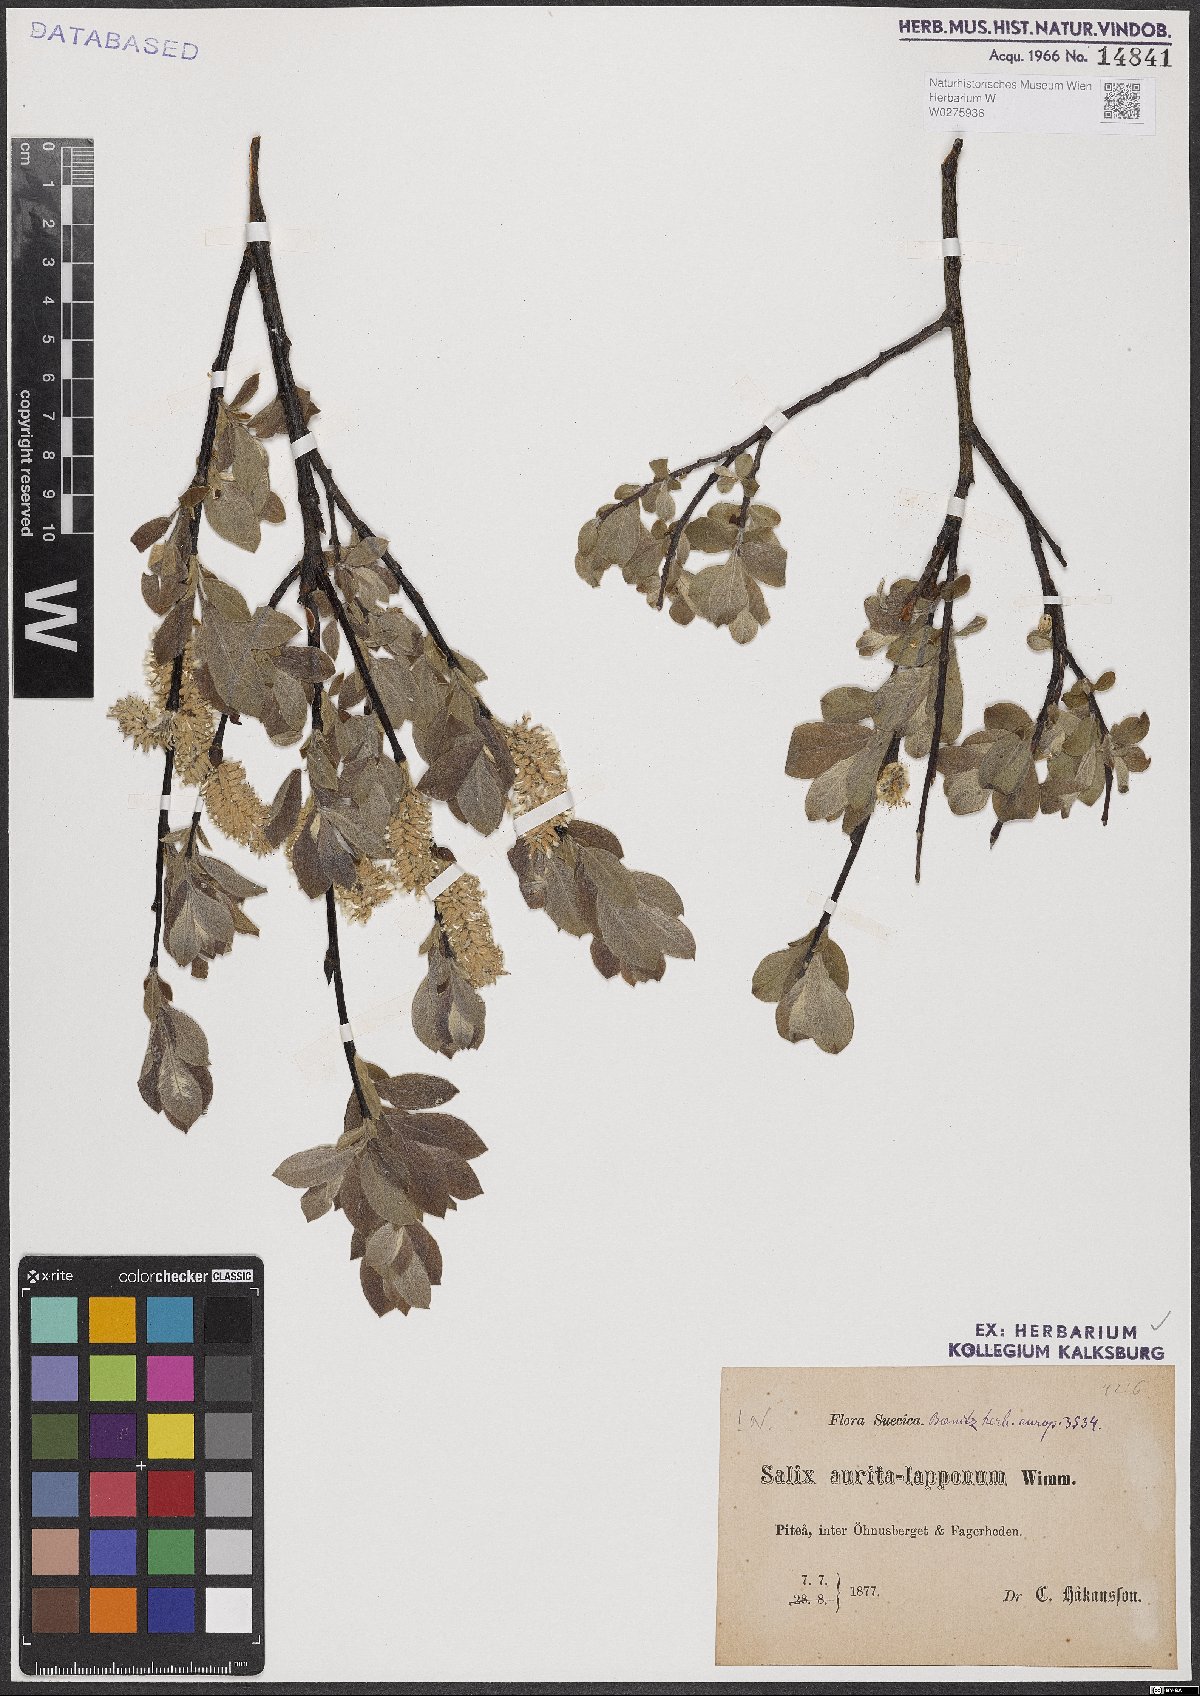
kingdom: Plantae
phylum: Tracheophyta
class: Magnoliopsida
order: Malpighiales
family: Salicaceae
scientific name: Salicaceae
